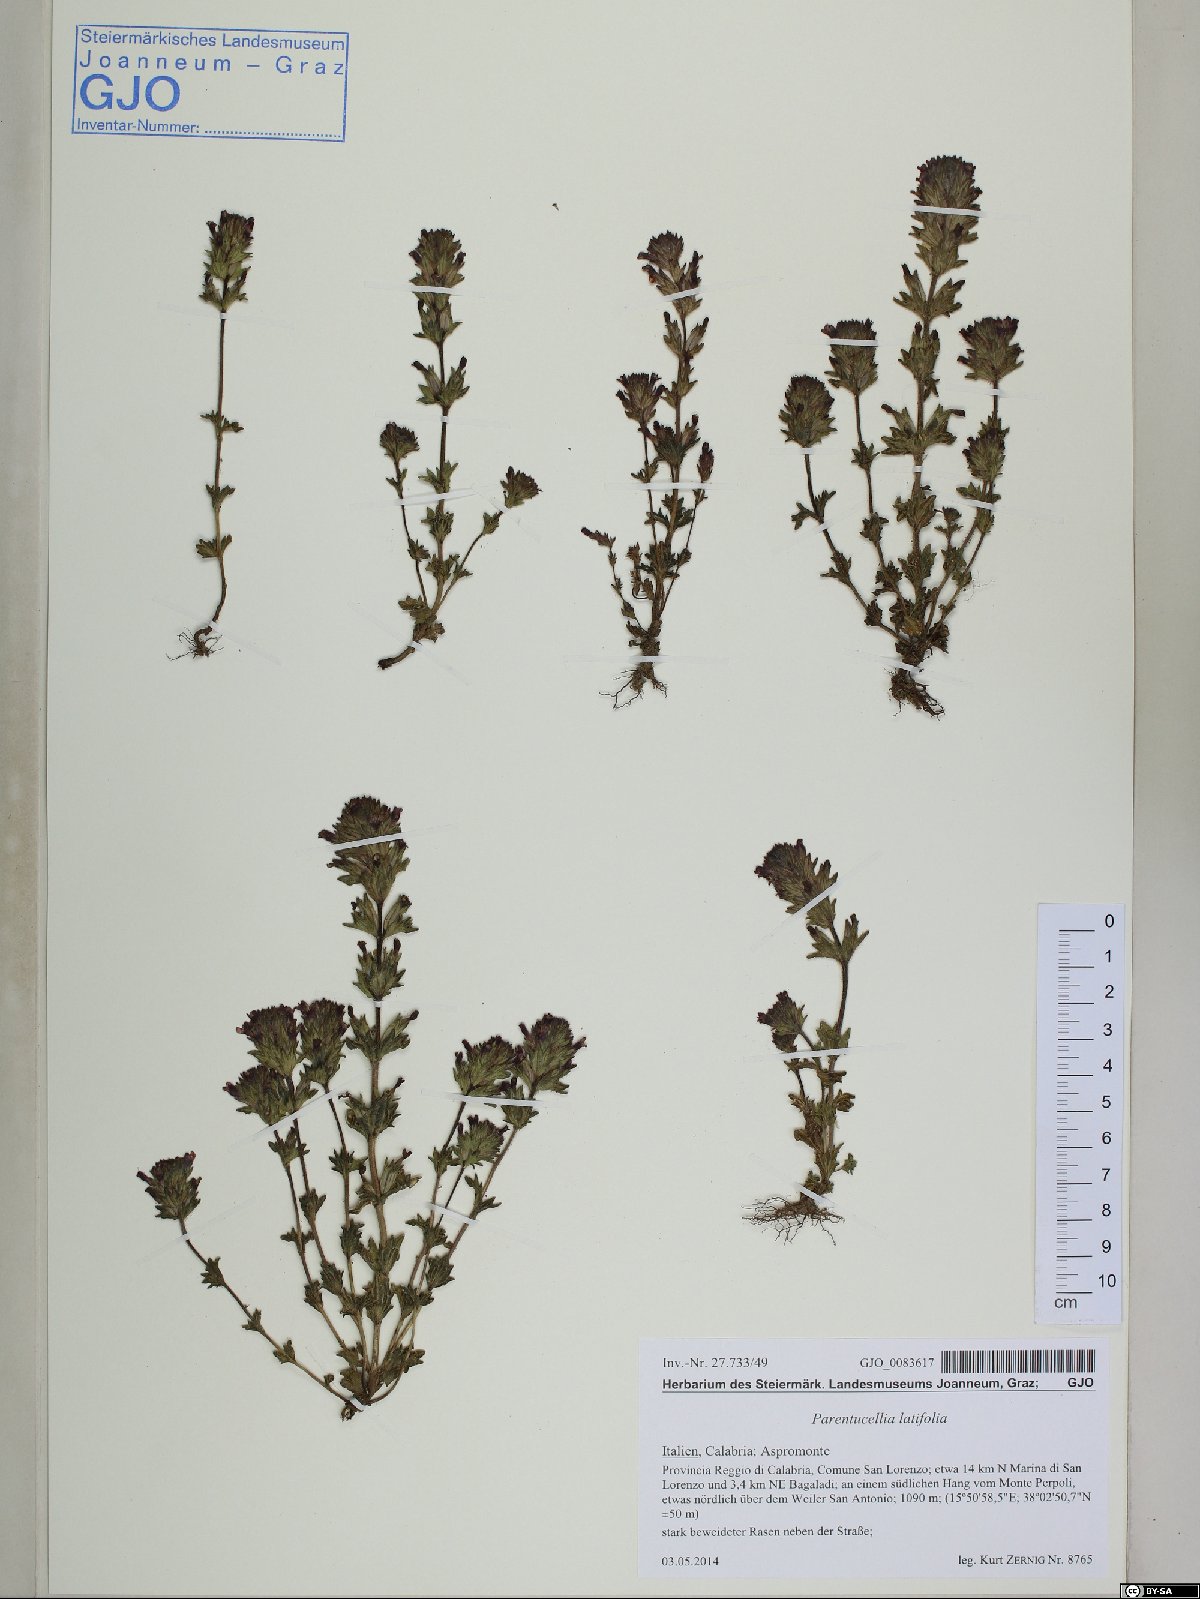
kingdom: Plantae
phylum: Tracheophyta
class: Magnoliopsida
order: Lamiales
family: Orobanchaceae
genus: Parentucellia
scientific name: Parentucellia latifolia
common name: Broadleaf glandweed
